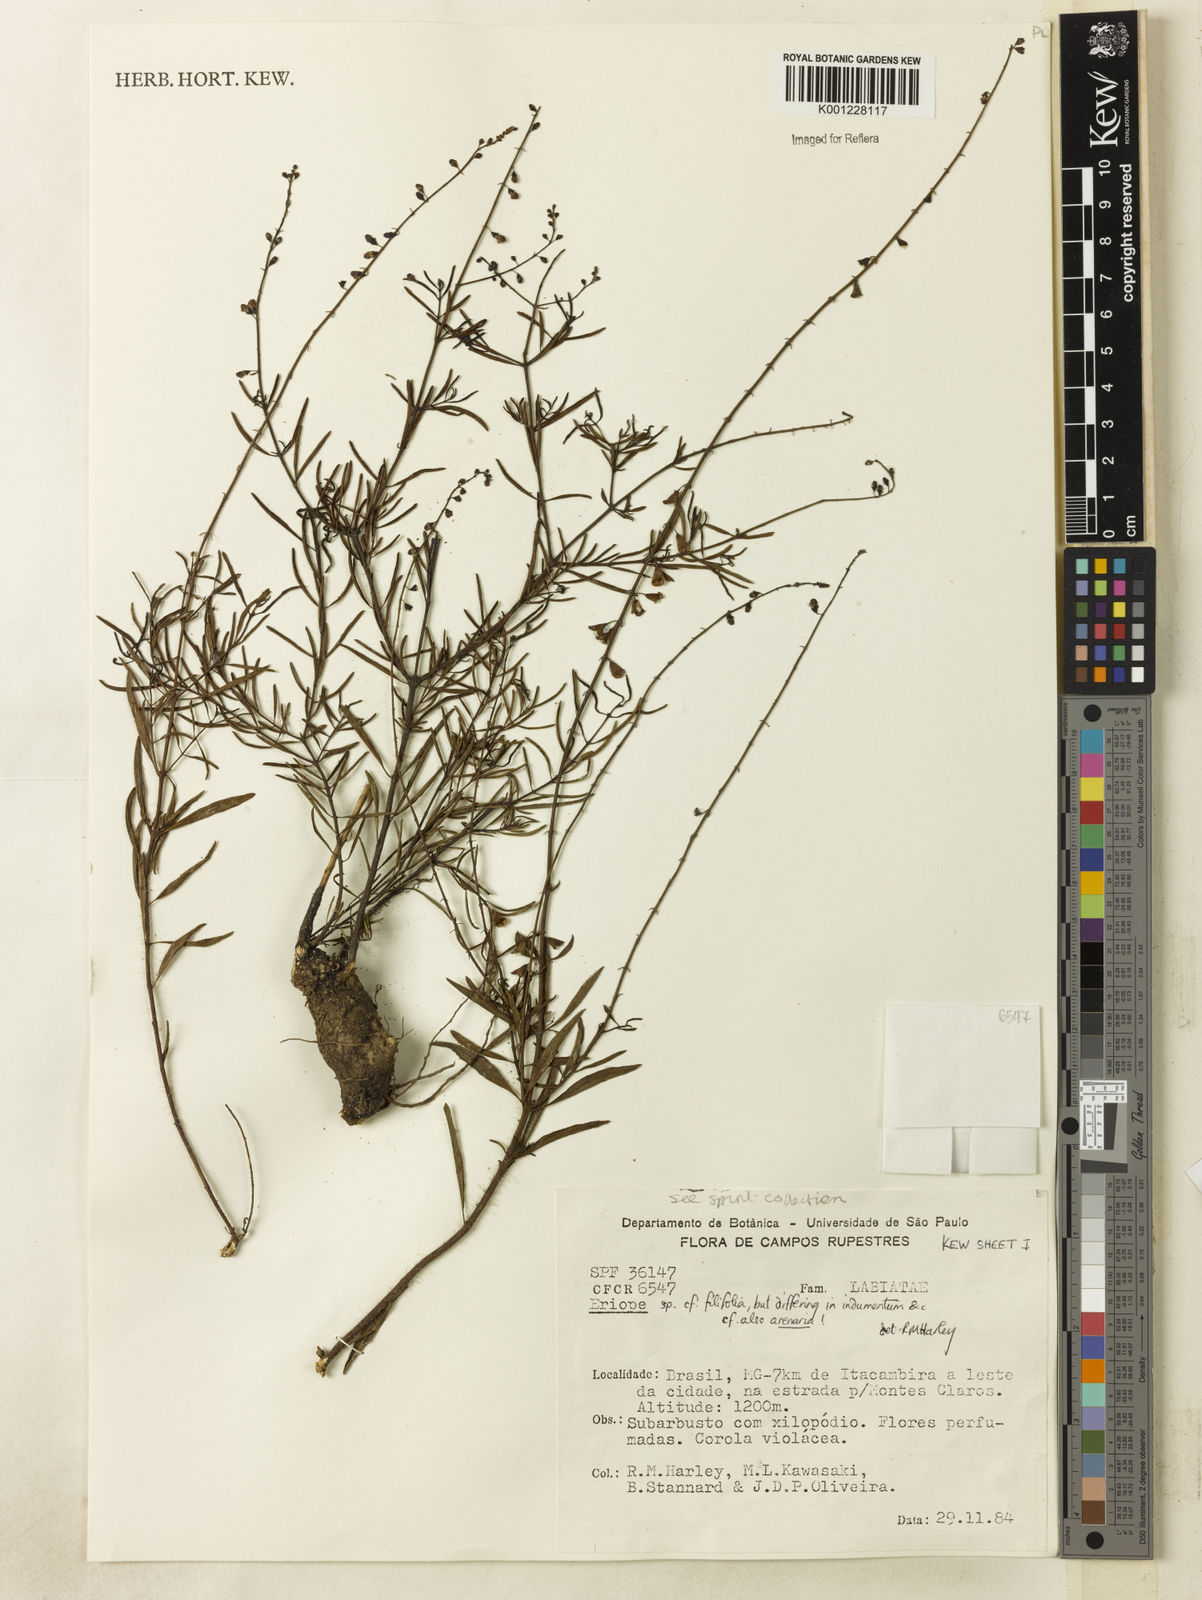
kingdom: Plantae
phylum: Tracheophyta
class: Magnoliopsida
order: Lamiales
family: Lamiaceae
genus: Eriope
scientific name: Eriope
